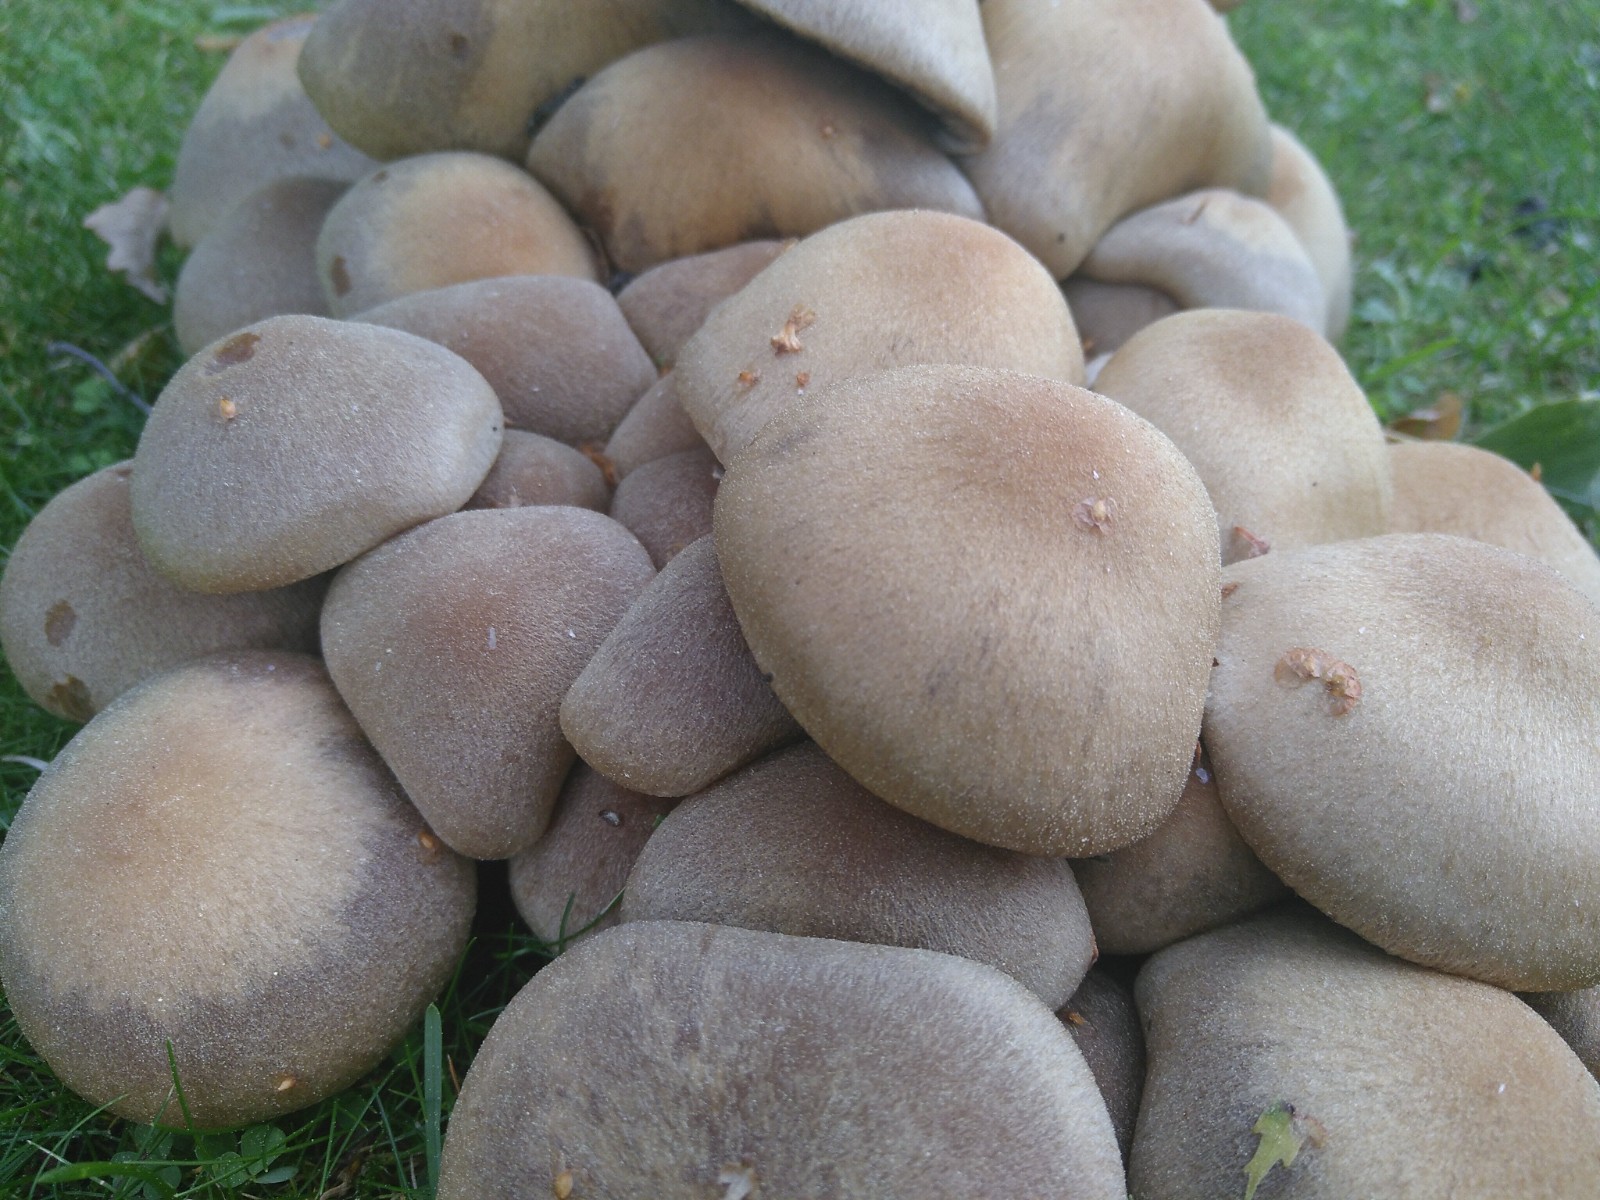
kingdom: Fungi
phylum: Basidiomycota
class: Agaricomycetes
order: Agaricales
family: Psathyrellaceae
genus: Lacrymaria
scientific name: Lacrymaria lacrymabunda
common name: grædende mørkhat
